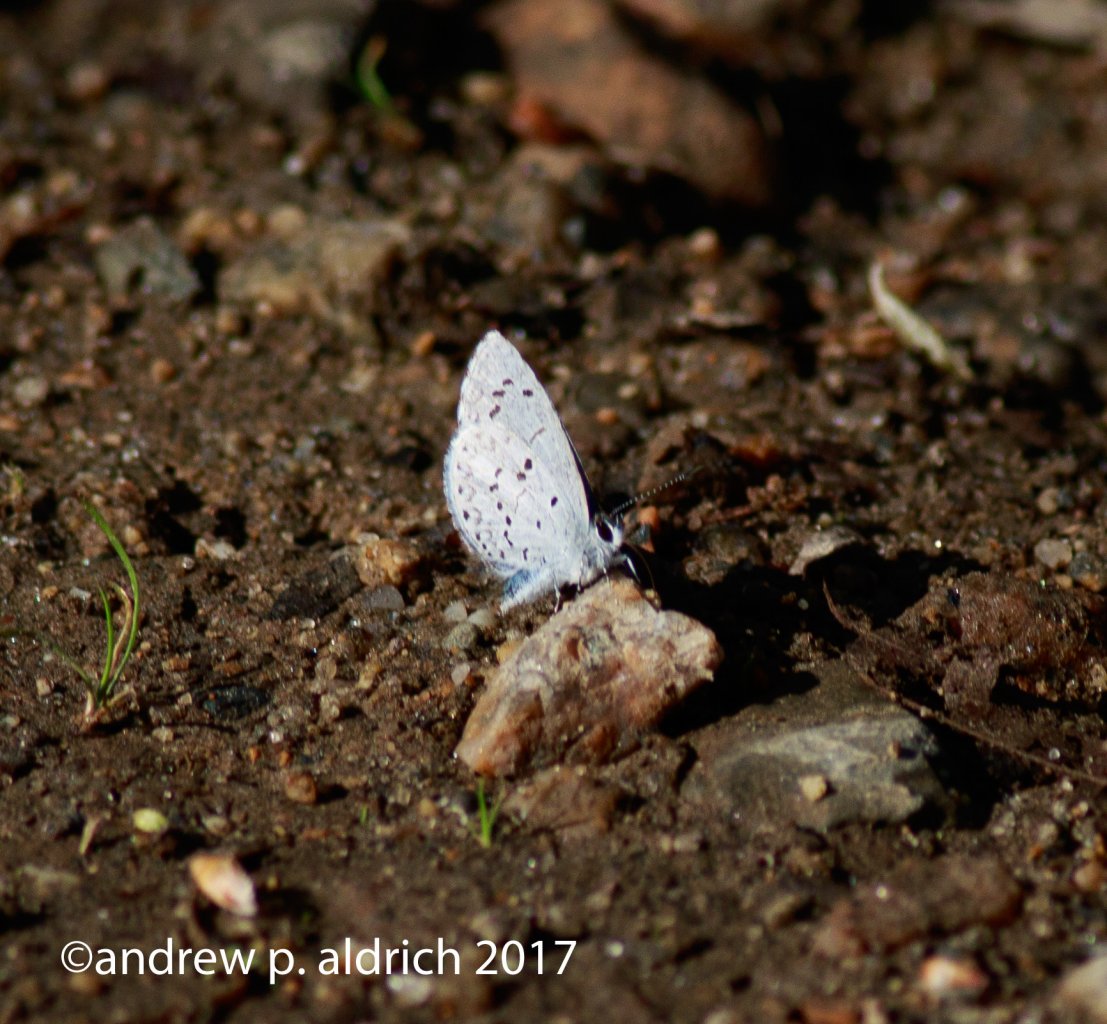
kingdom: Animalia
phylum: Arthropoda
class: Insecta
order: Lepidoptera
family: Lycaenidae
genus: Celastrina
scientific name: Celastrina
